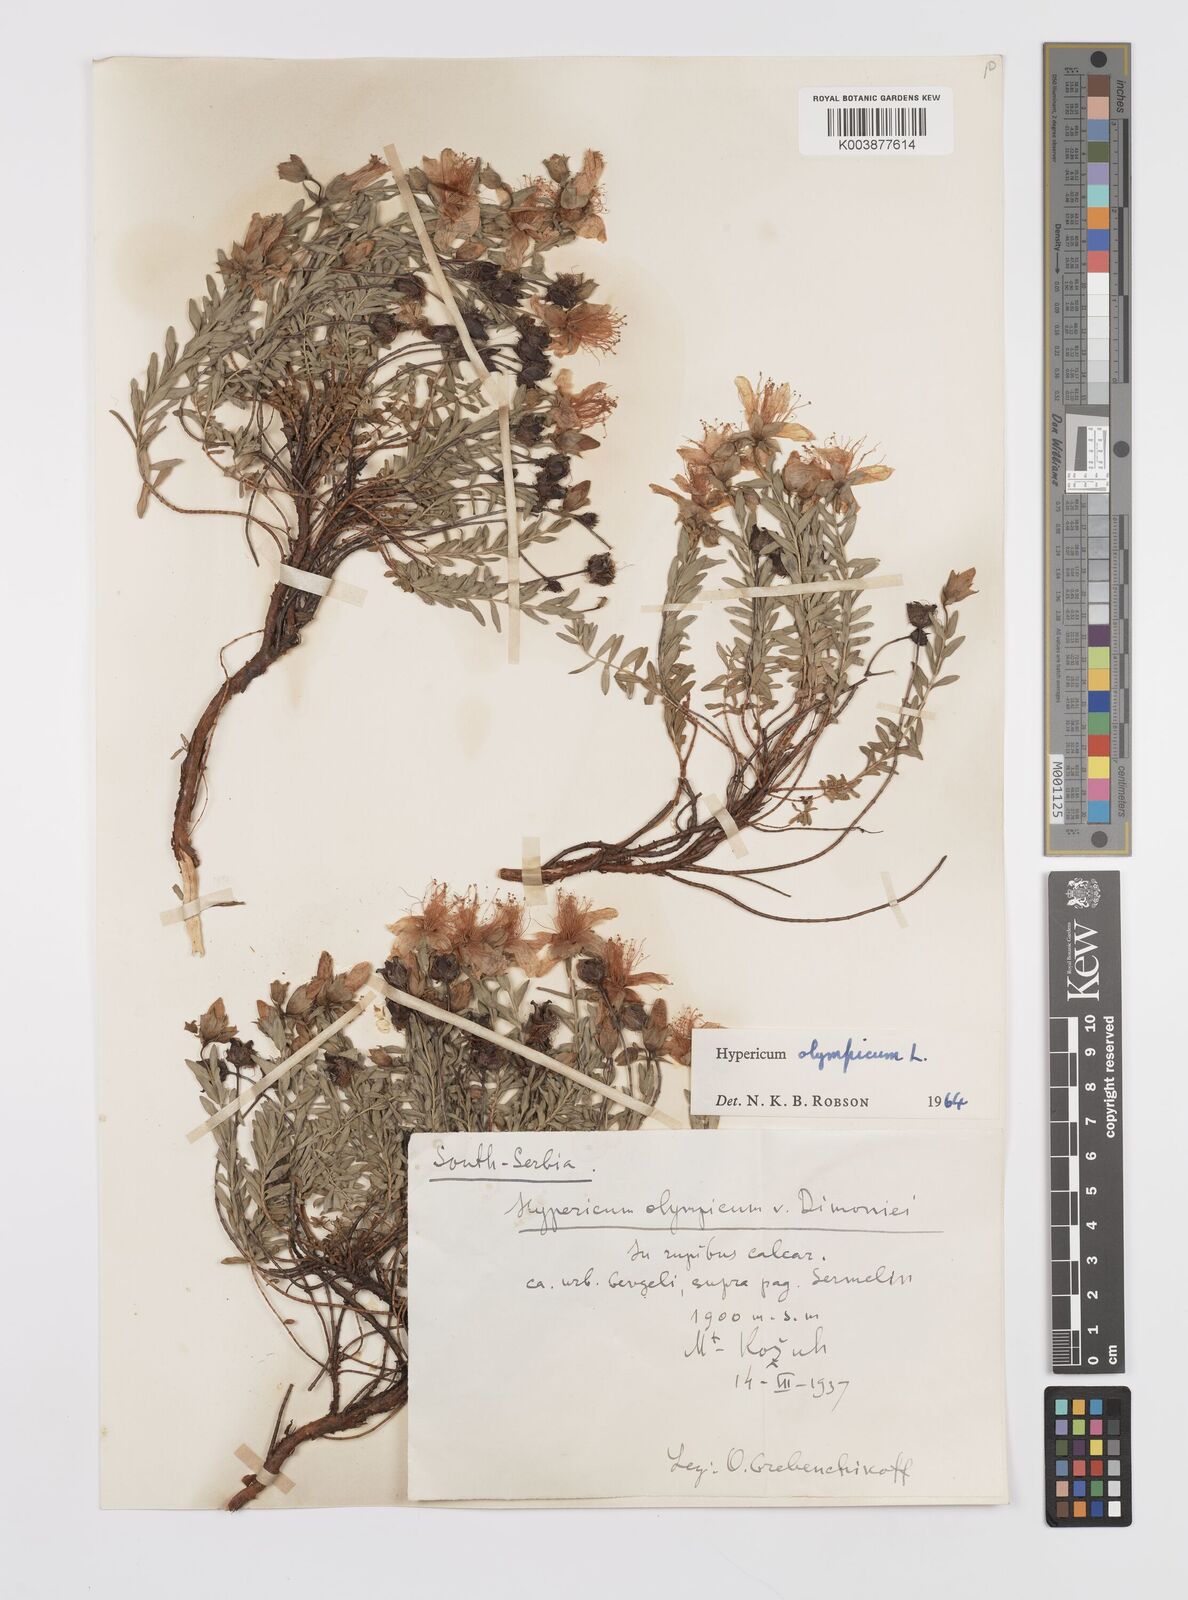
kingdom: Plantae
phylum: Tracheophyta
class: Magnoliopsida
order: Malpighiales
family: Hypericaceae
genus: Hypericum
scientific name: Hypericum olympicum
